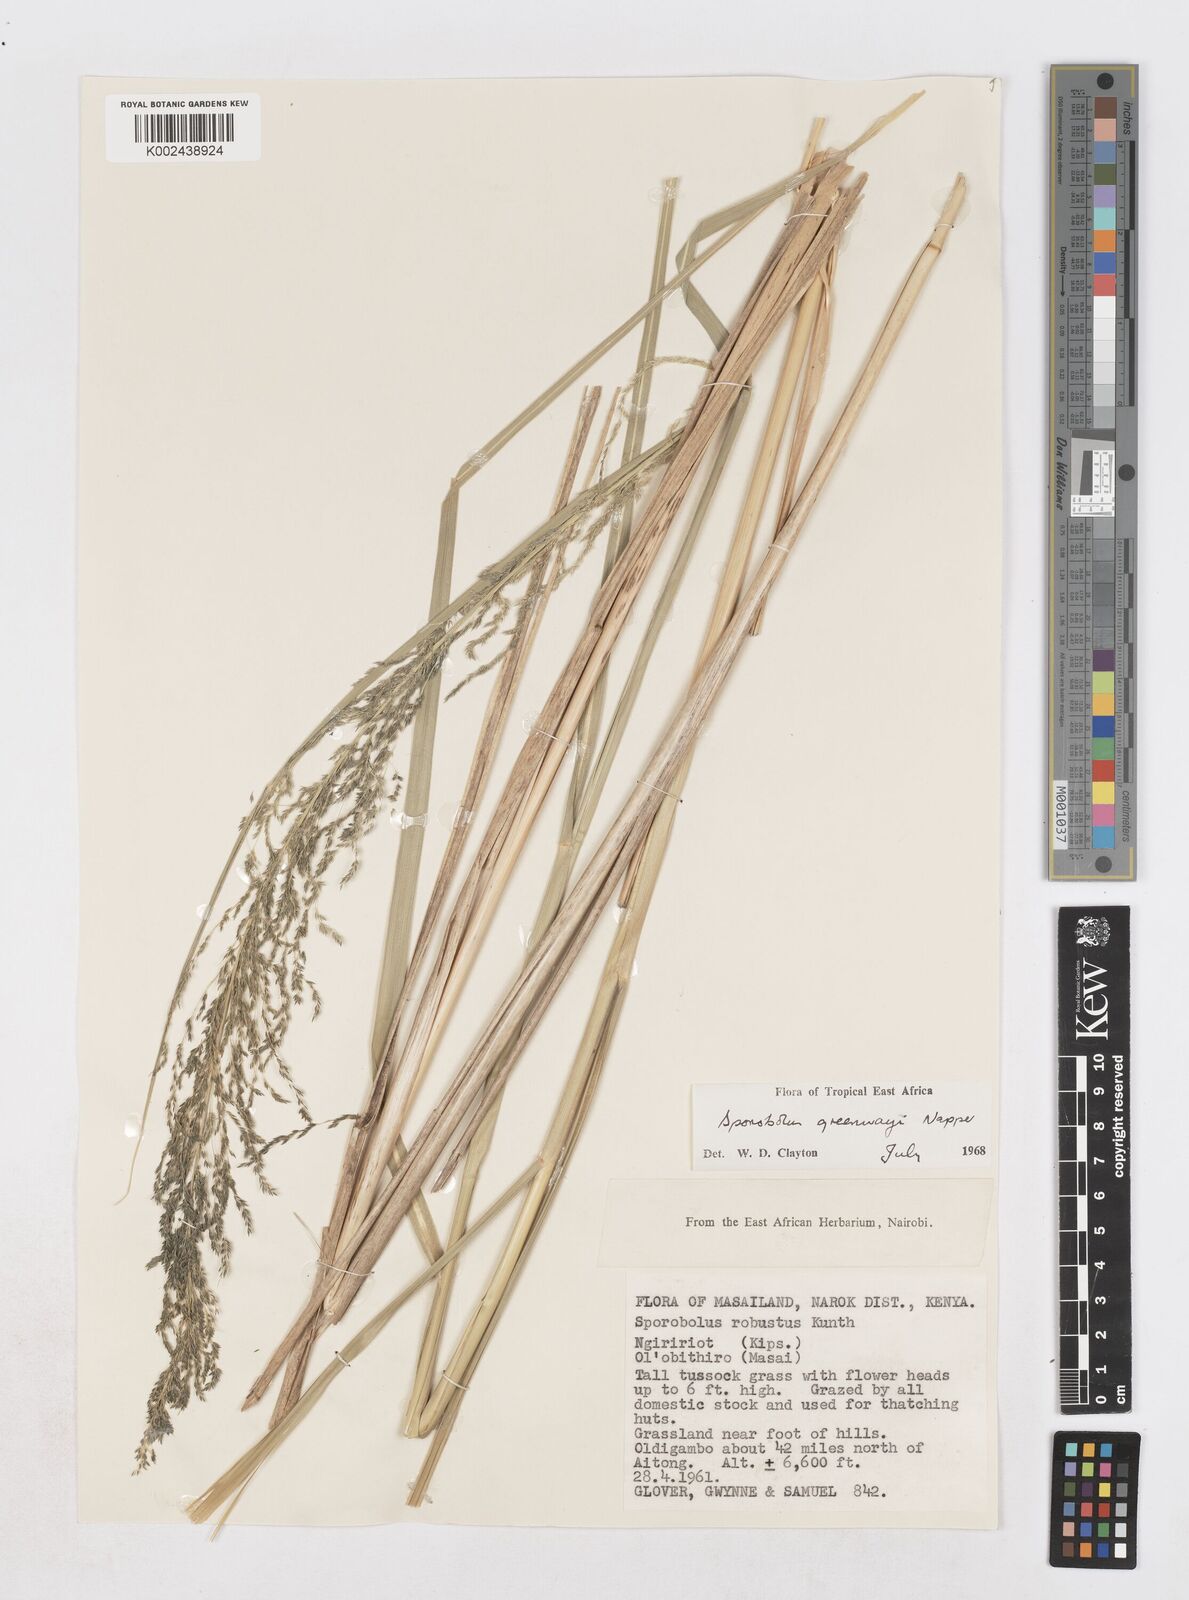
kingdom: Plantae
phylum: Tracheophyta
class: Liliopsida
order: Poales
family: Poaceae
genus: Sporobolus
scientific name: Sporobolus macranthelus
